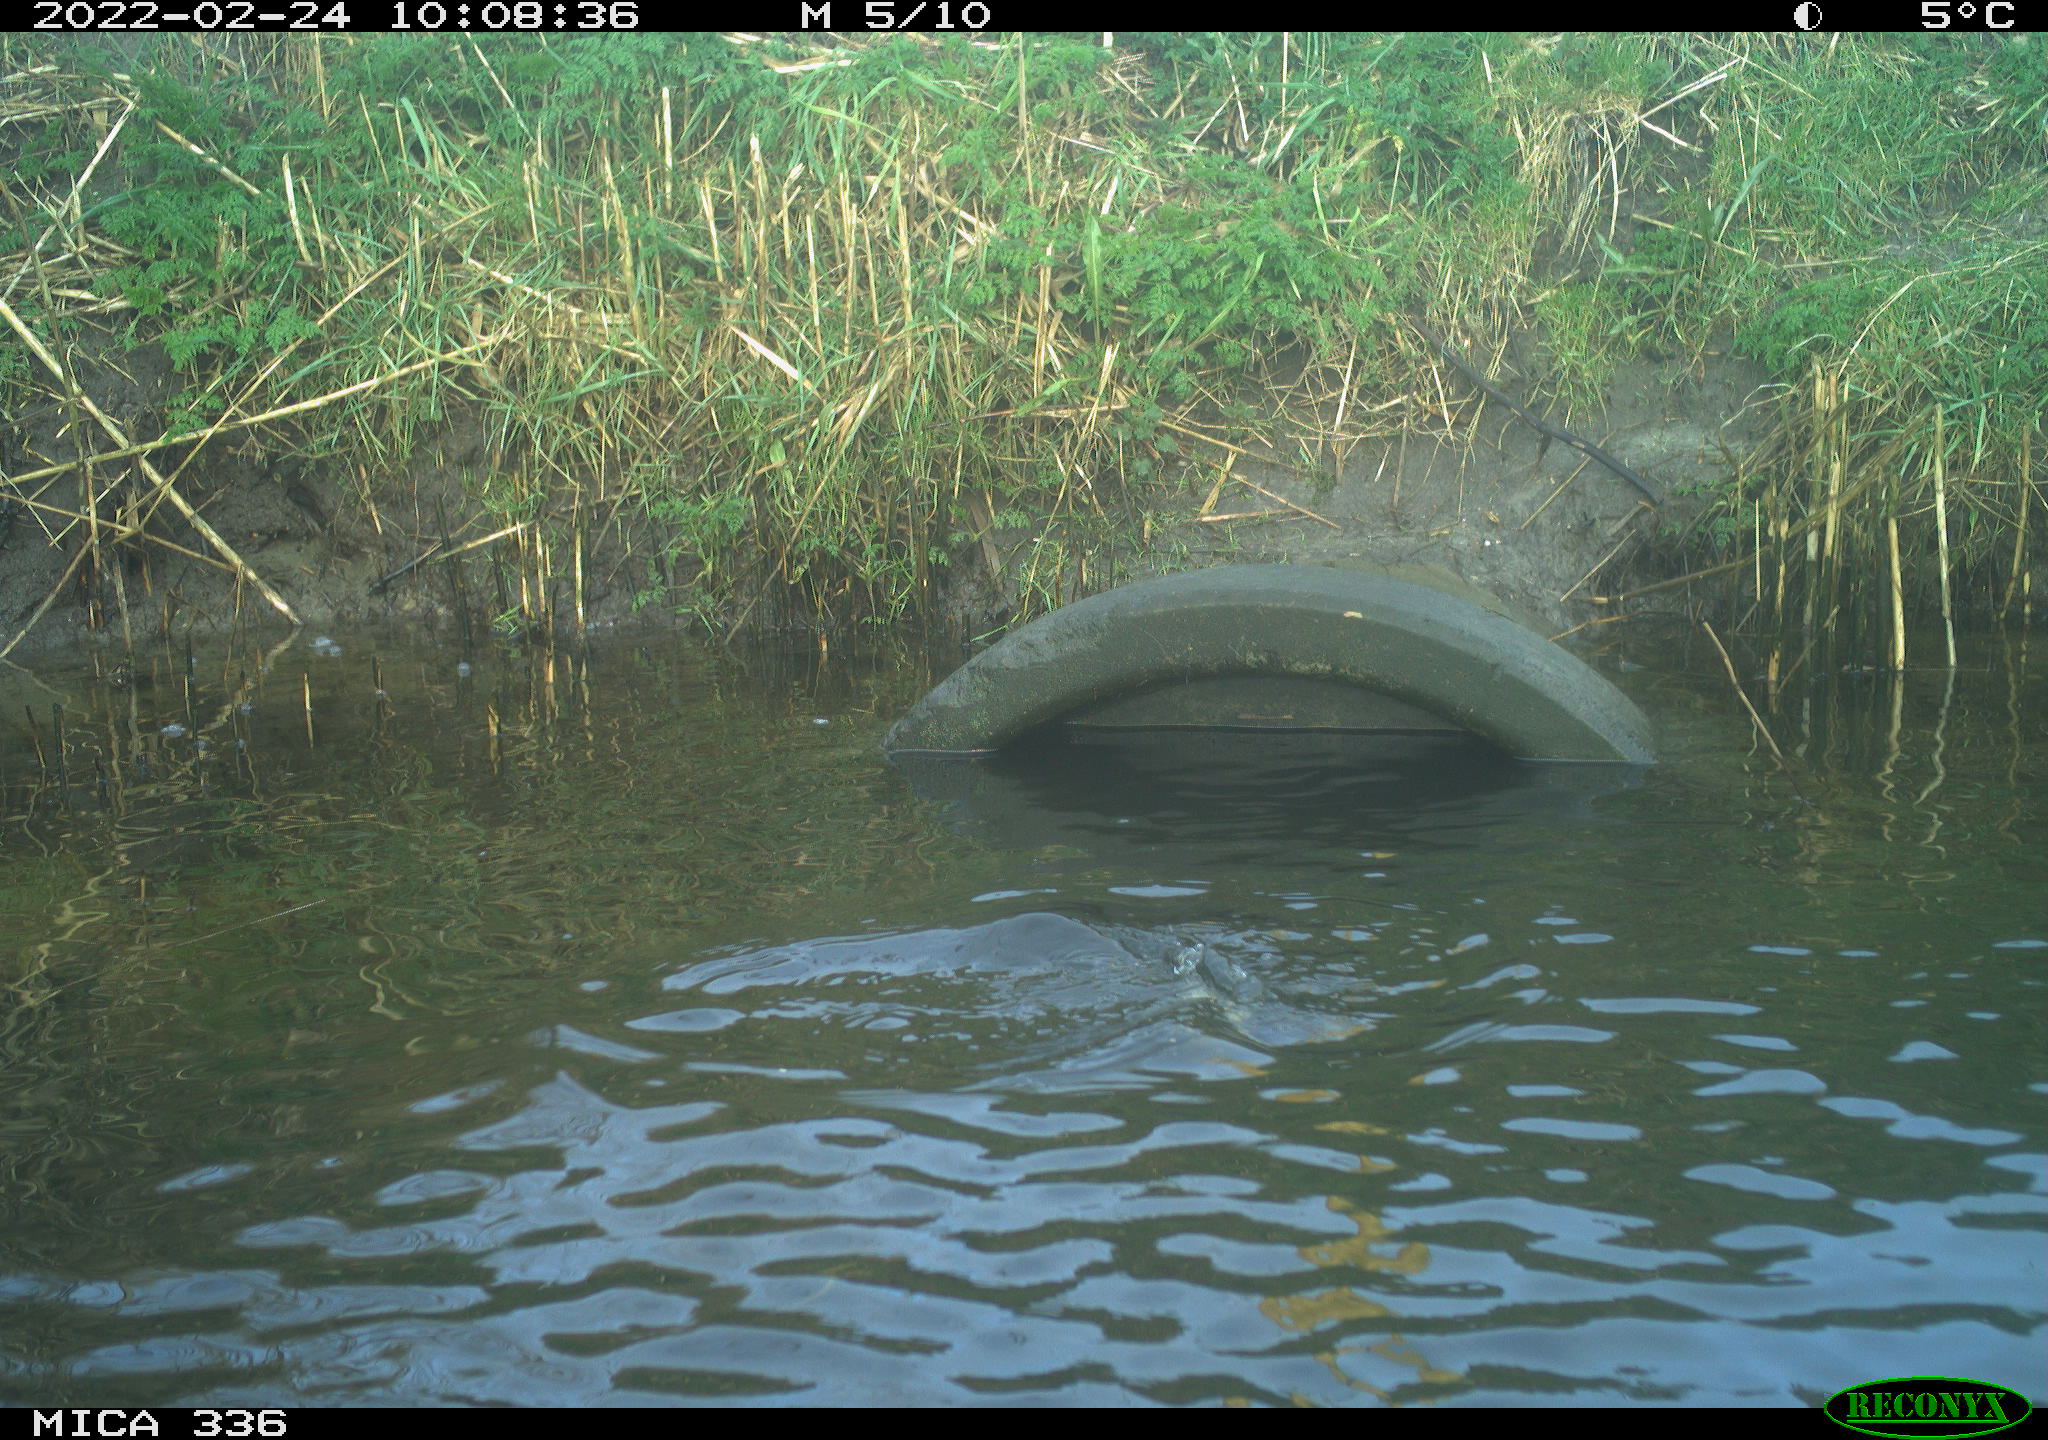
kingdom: Animalia
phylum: Chordata
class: Aves
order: Podicipediformes
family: Podicipedidae
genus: Podiceps
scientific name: Podiceps cristatus
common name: Great crested grebe
